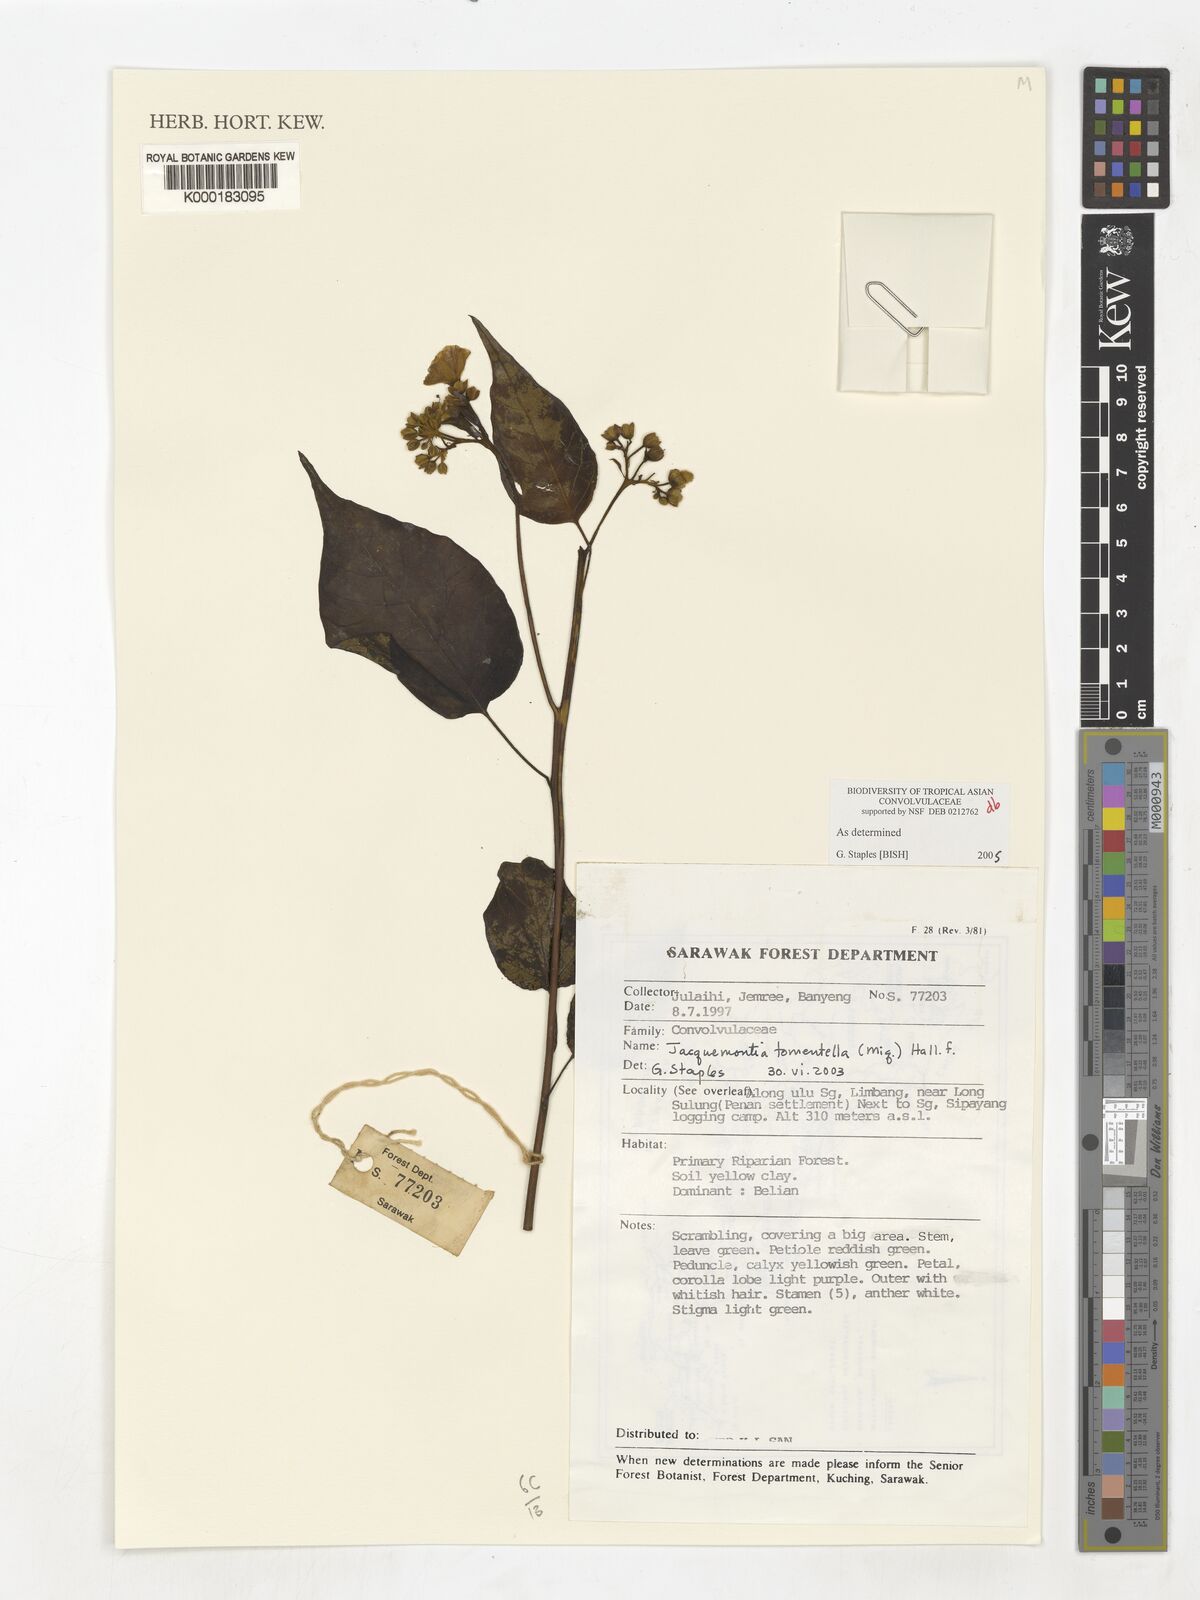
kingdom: Plantae
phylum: Tracheophyta
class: Magnoliopsida
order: Solanales
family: Convolvulaceae
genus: Jacquemontia
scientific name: Jacquemontia tomentella
